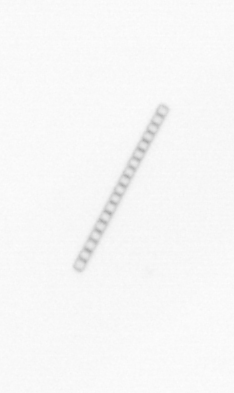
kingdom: Chromista
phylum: Ochrophyta
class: Bacillariophyceae
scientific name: Bacillariophyceae
